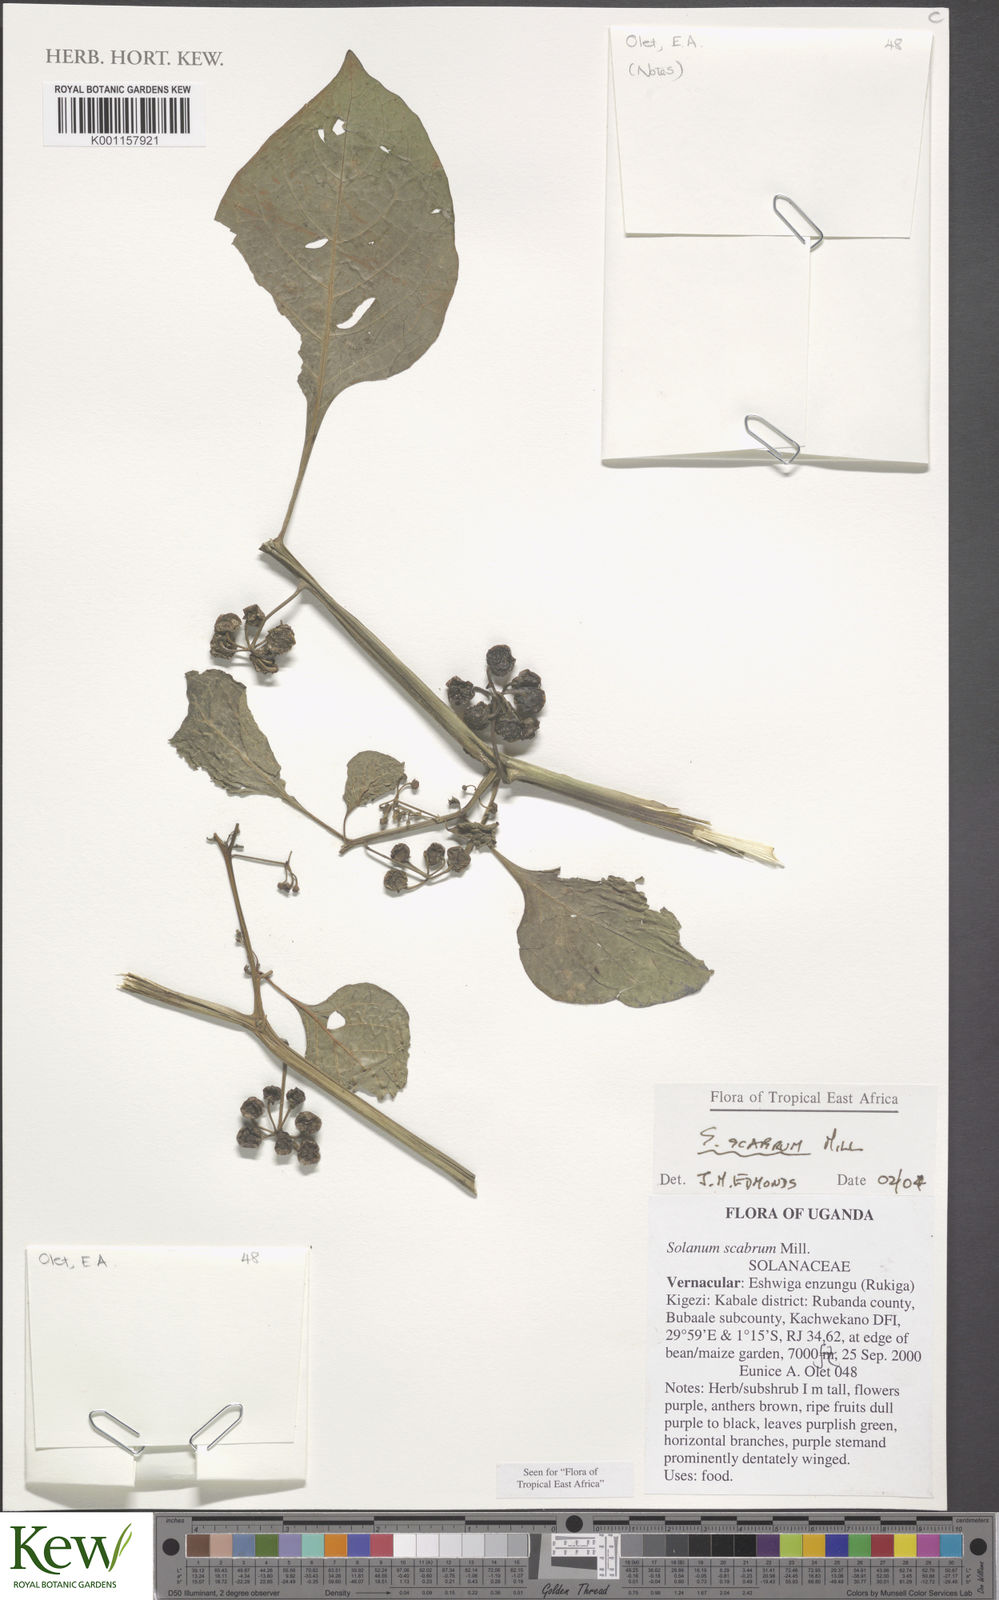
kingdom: Plantae
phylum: Tracheophyta
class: Magnoliopsida
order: Solanales
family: Solanaceae
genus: Solanum
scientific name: Solanum scabrum
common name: Garden-huckleberry
